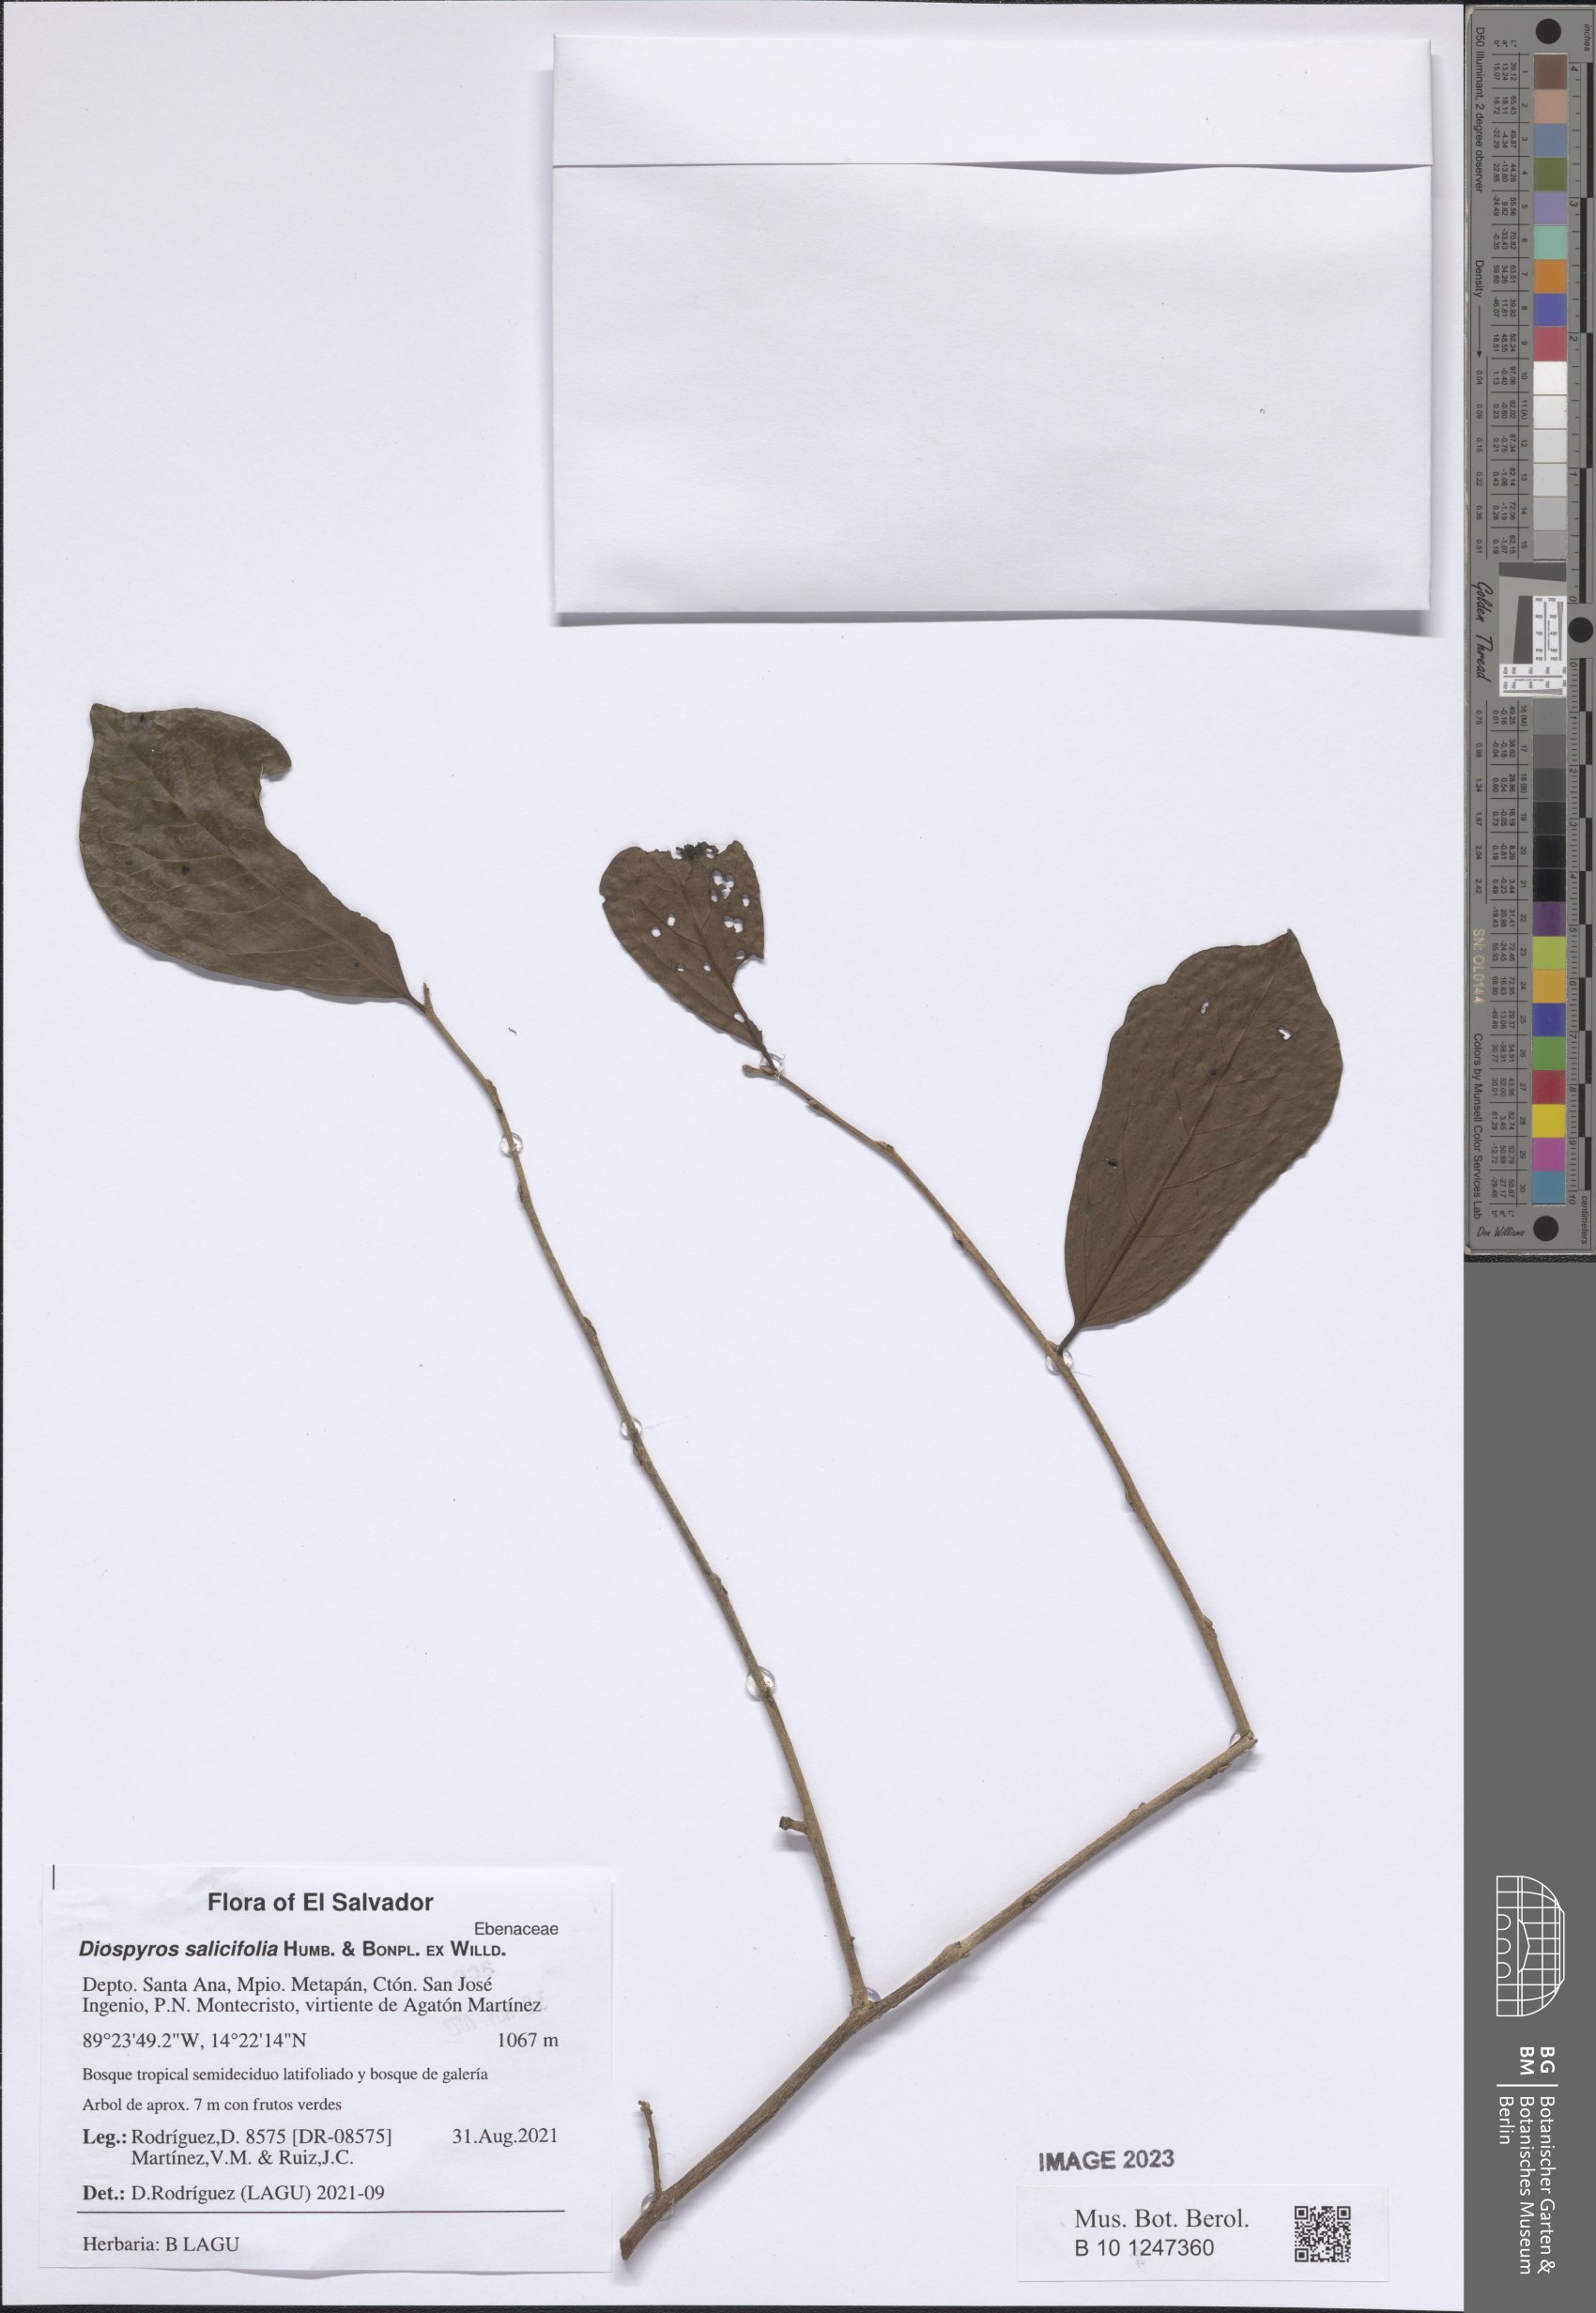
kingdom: Plantae
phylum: Tracheophyta
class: Magnoliopsida
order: Ericales
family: Ebenaceae
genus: Diospyros
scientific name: Diospyros salicifolia
